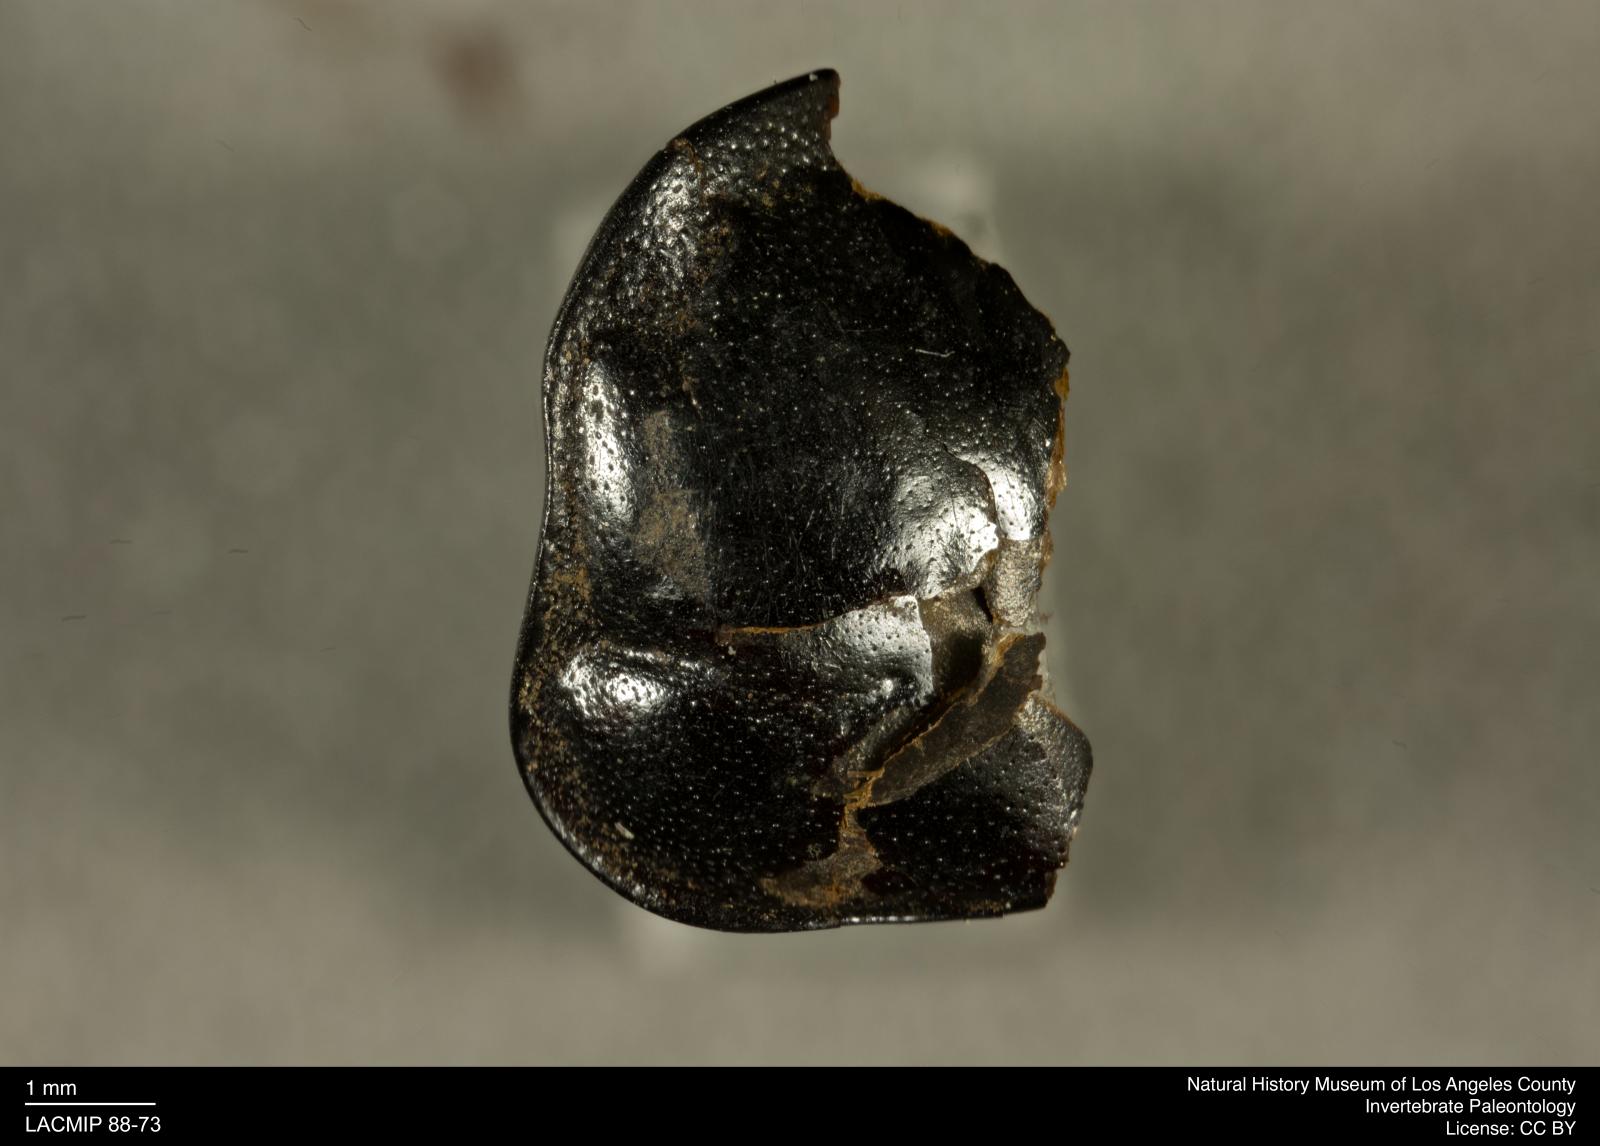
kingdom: Animalia
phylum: Arthropoda
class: Insecta
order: Coleoptera
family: Staphylinidae
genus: Nicrophorus
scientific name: Nicrophorus marginatus
